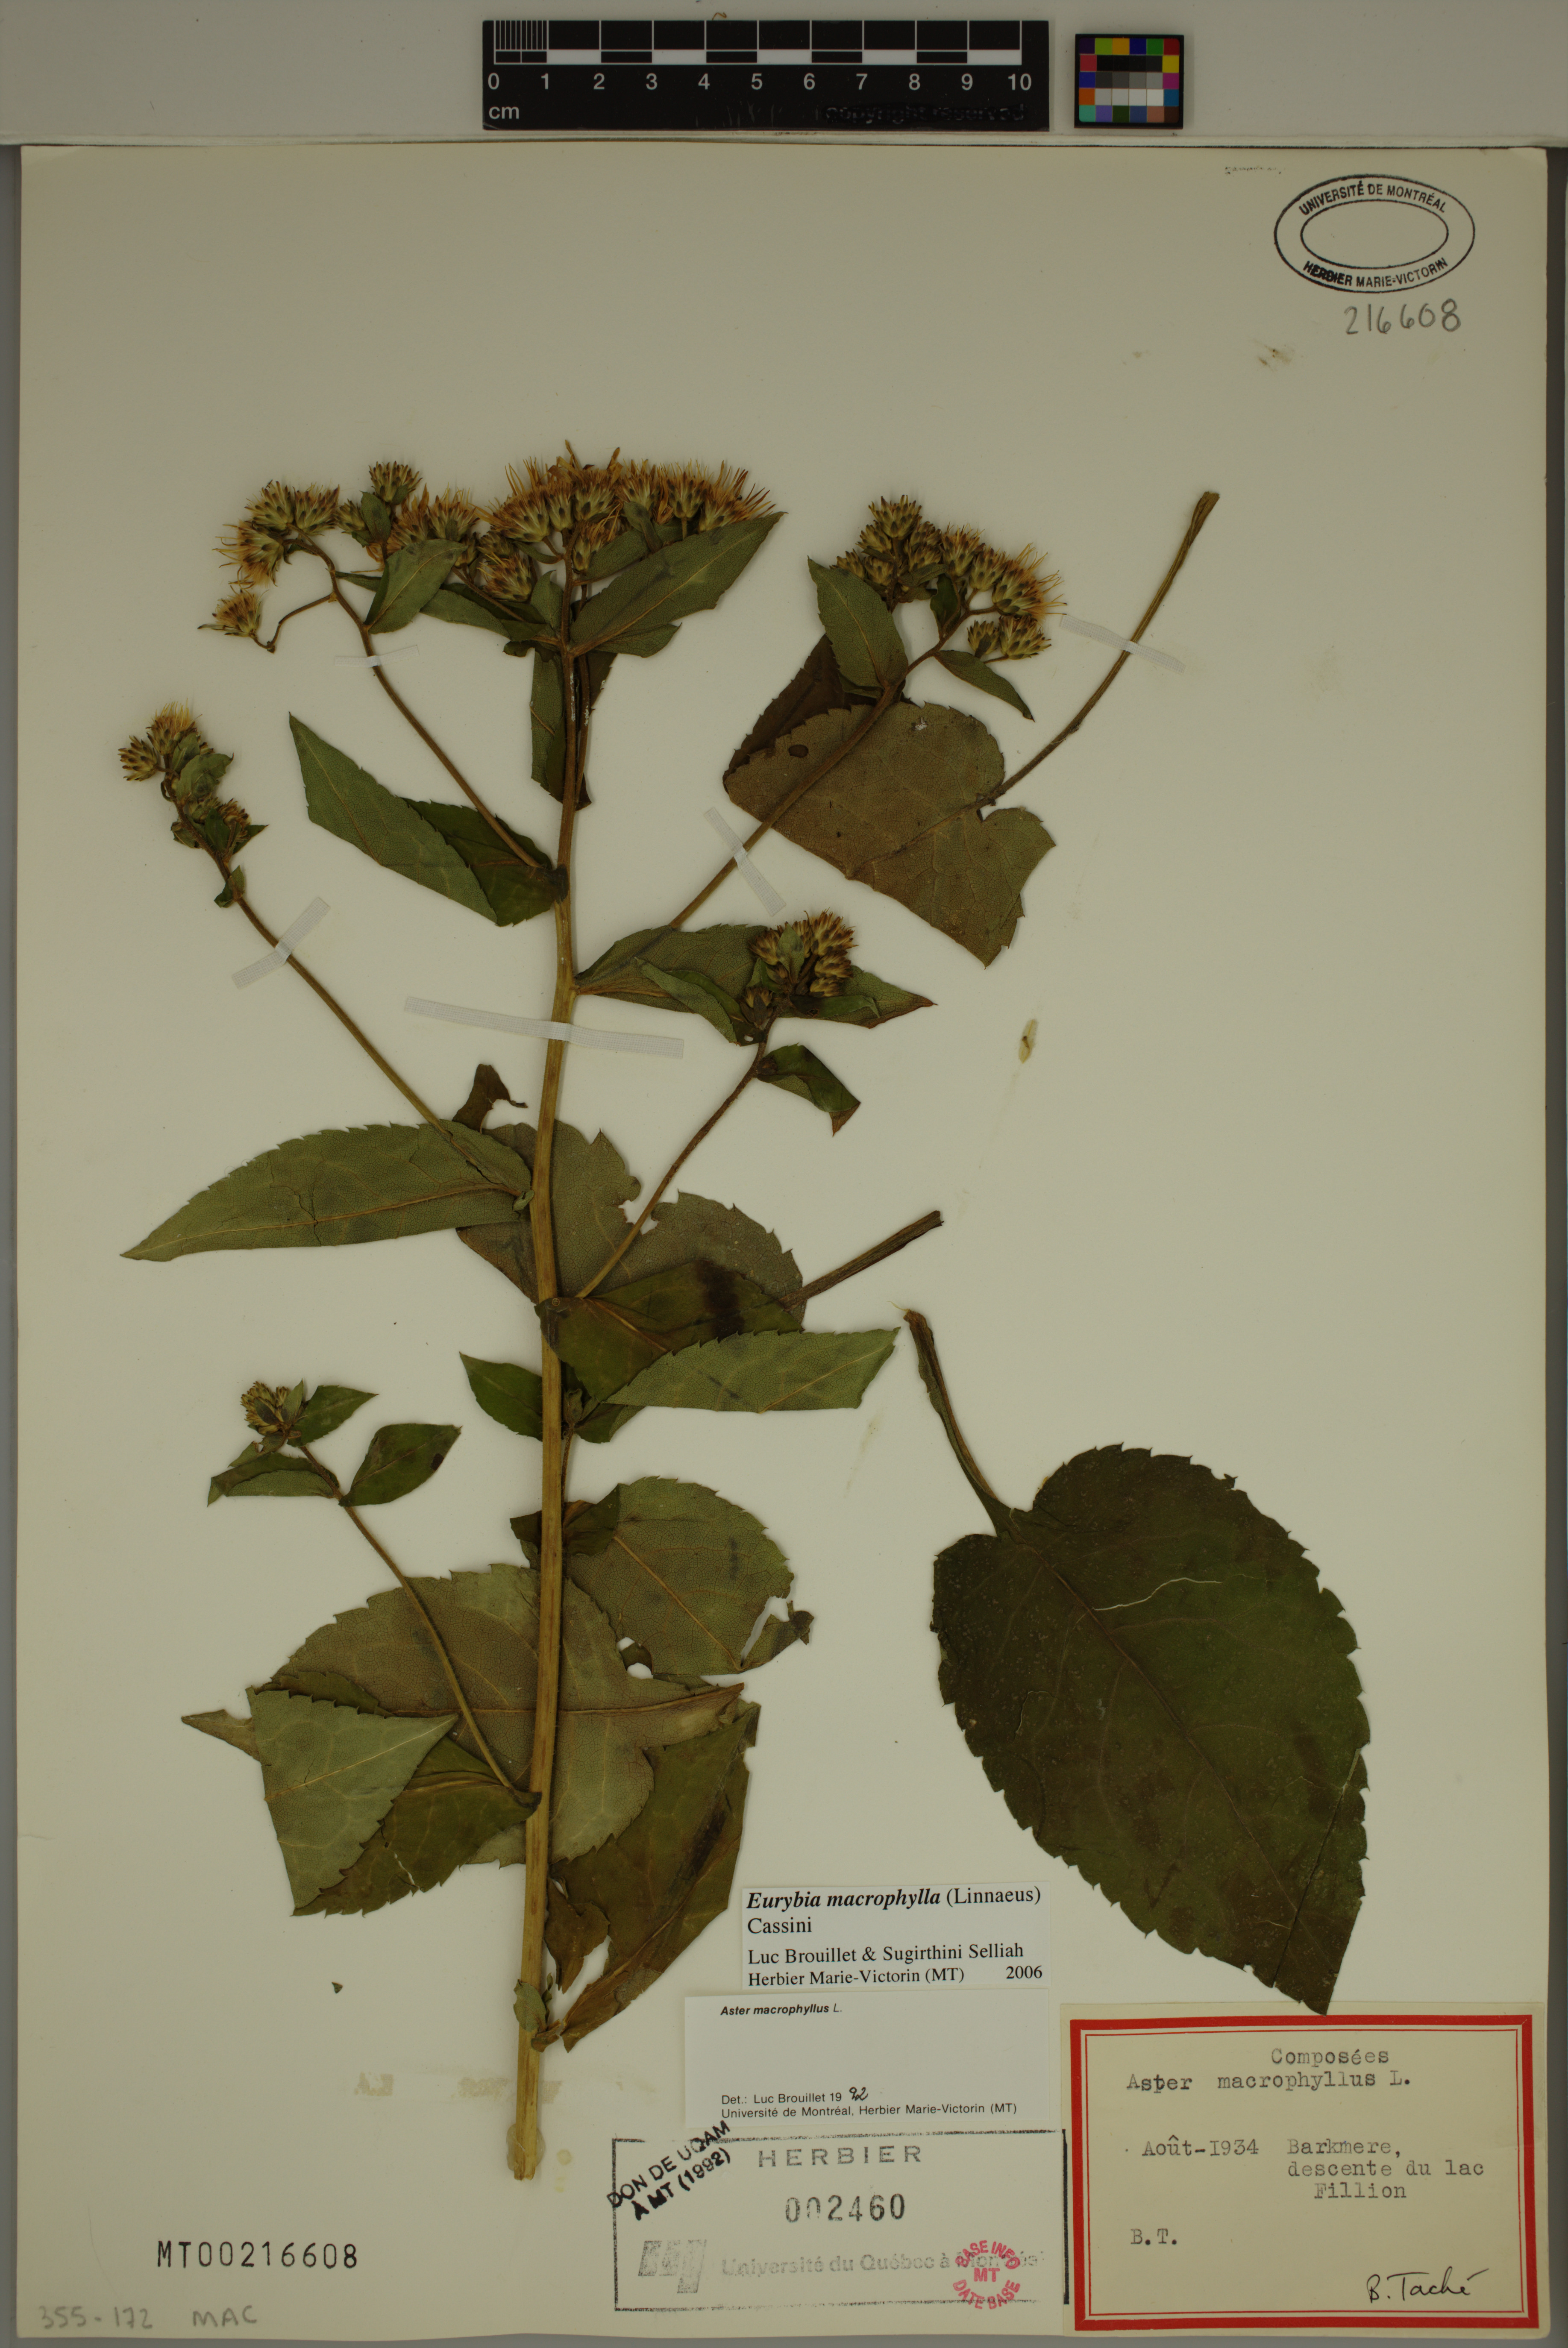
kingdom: Plantae
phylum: Tracheophyta
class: Magnoliopsida
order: Asterales
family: Asteraceae
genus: Eurybia
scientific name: Eurybia macrophylla
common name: Big-leaved aster
